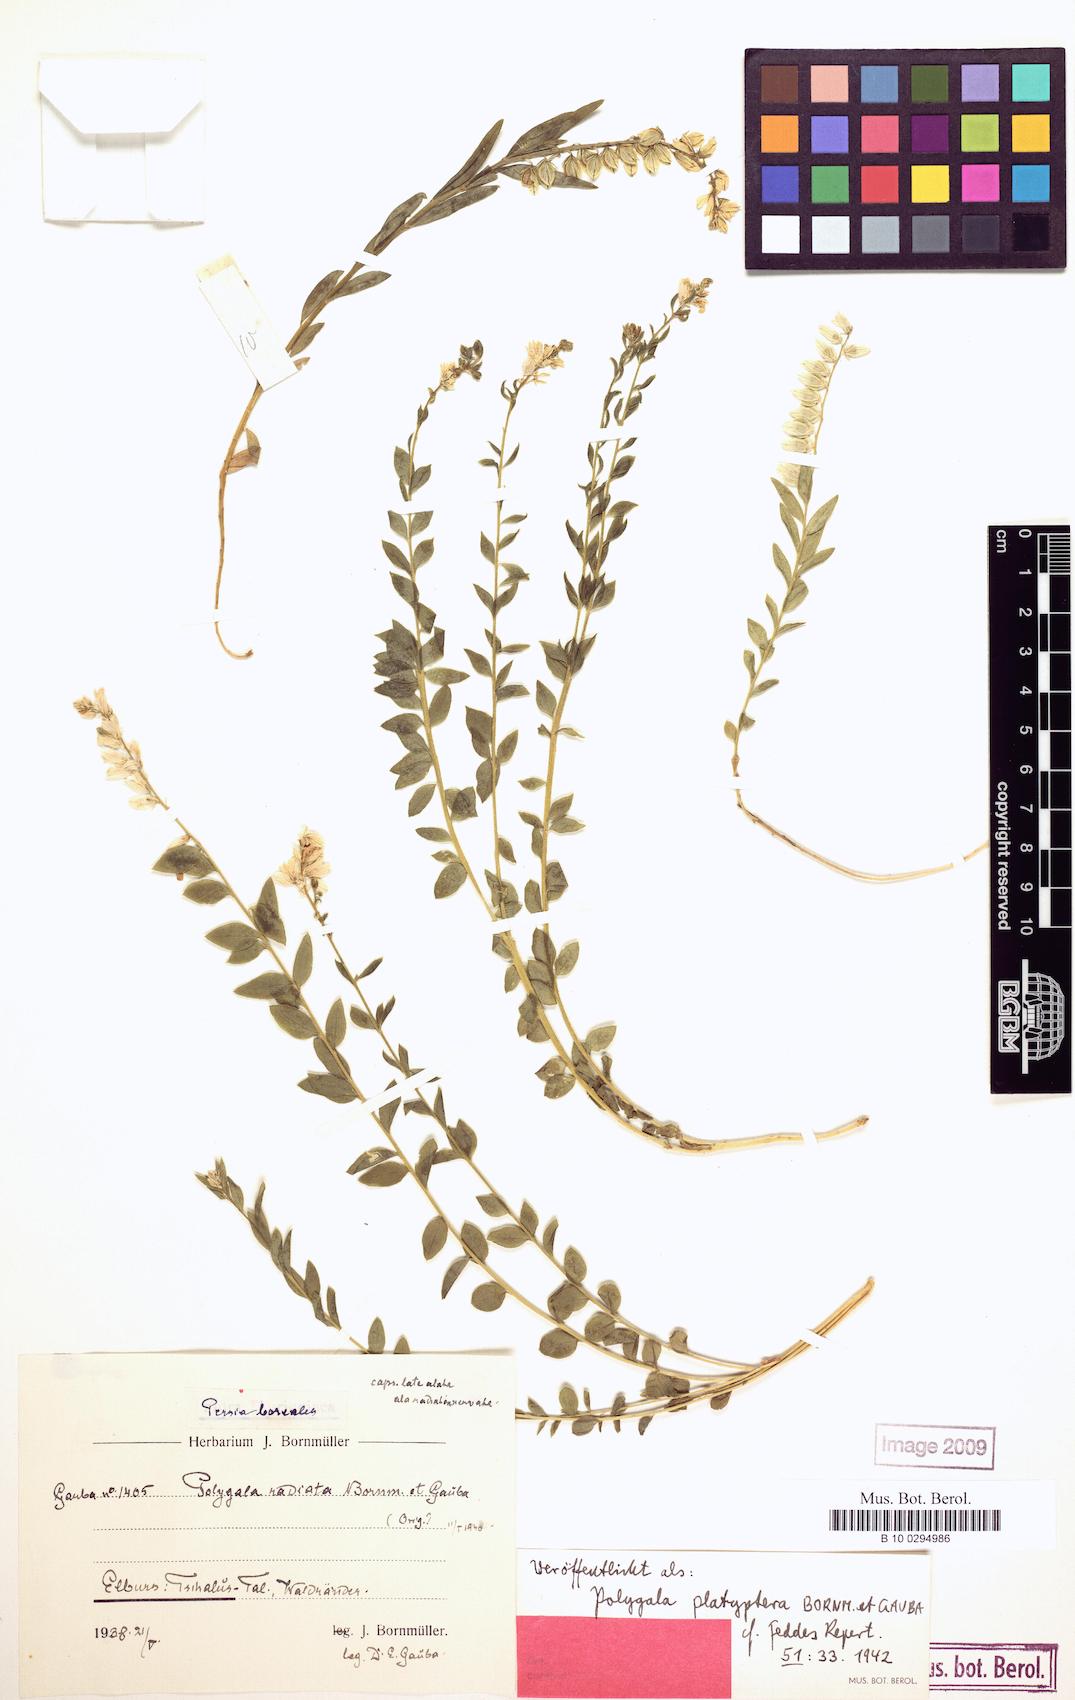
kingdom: Plantae
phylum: Tracheophyta
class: Magnoliopsida
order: Fabales
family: Polygalaceae
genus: Polygala
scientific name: Polygala platyptera
